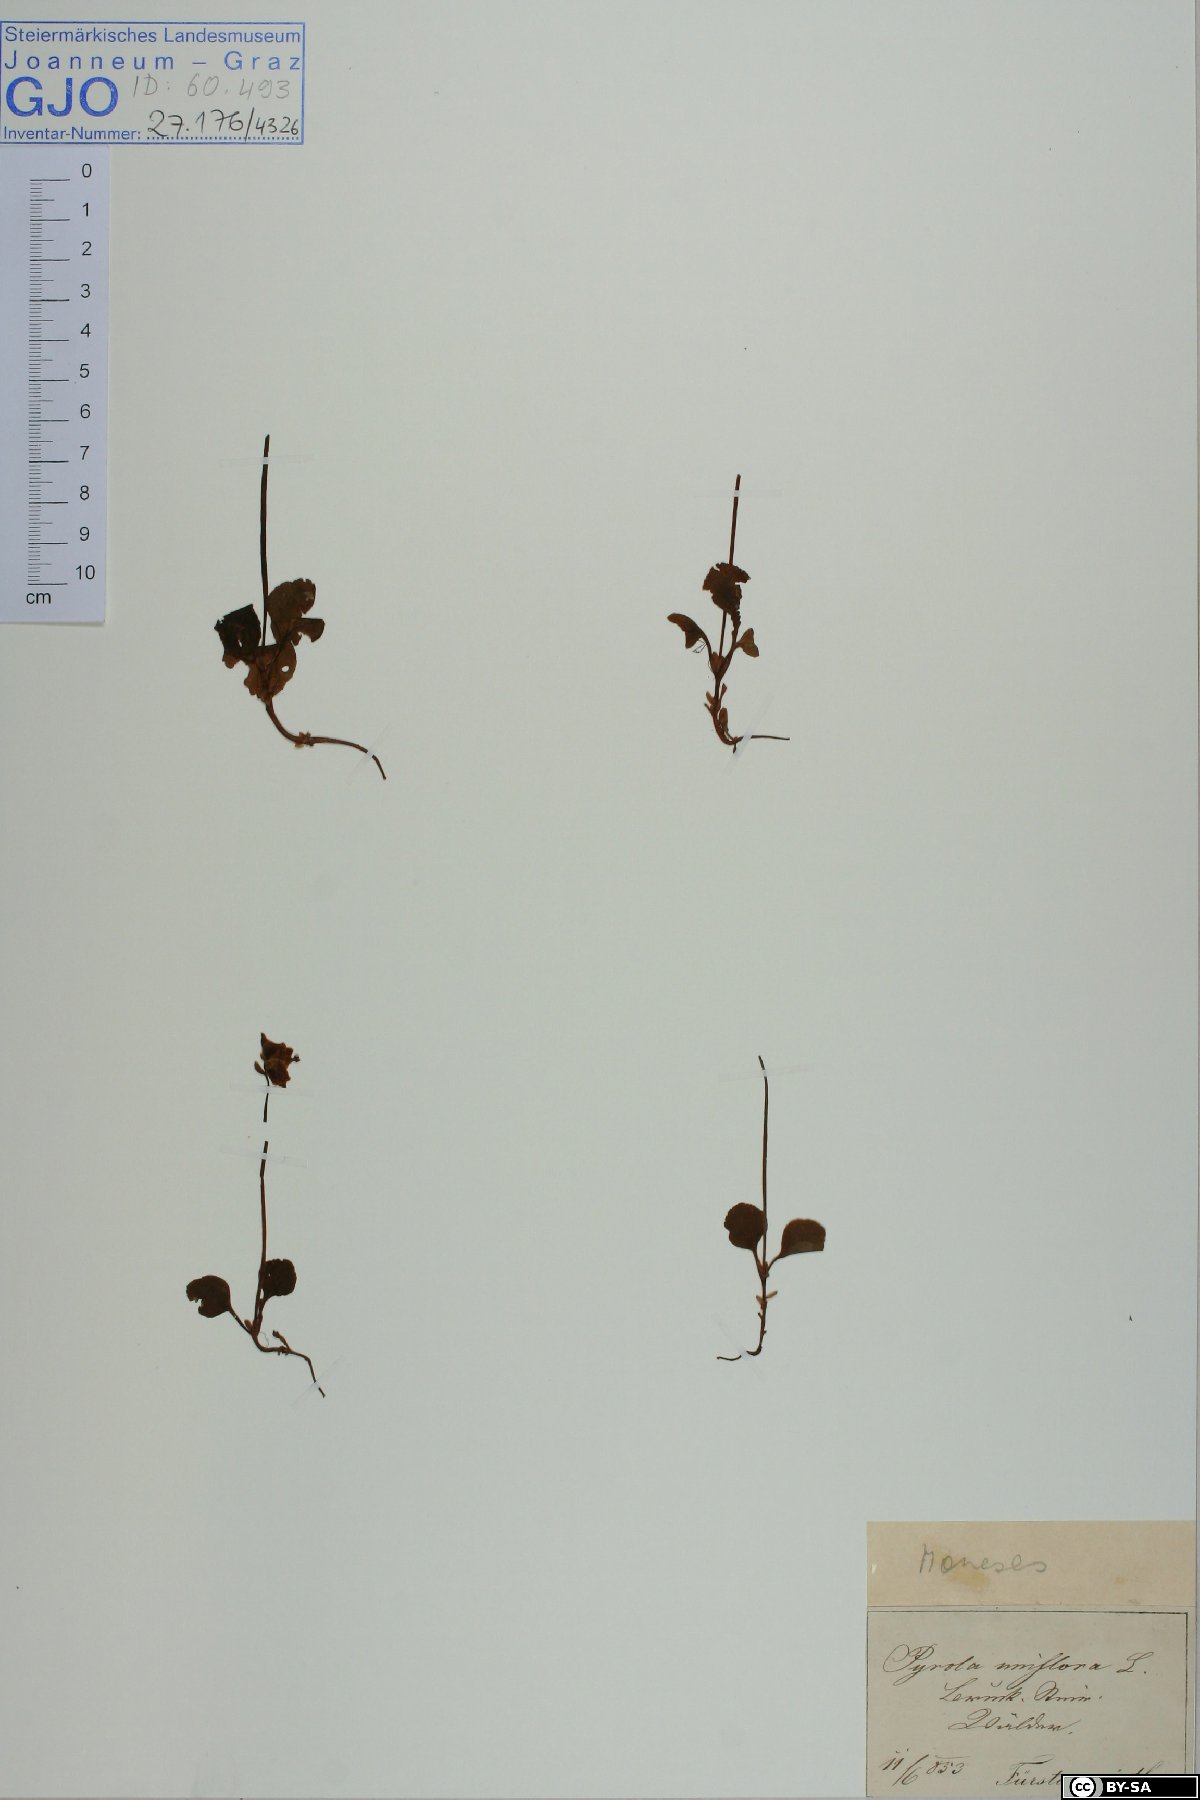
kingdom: Plantae
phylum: Tracheophyta
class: Magnoliopsida
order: Ericales
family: Ericaceae
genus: Moneses
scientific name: Moneses uniflora
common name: One-flowered wintergreen
